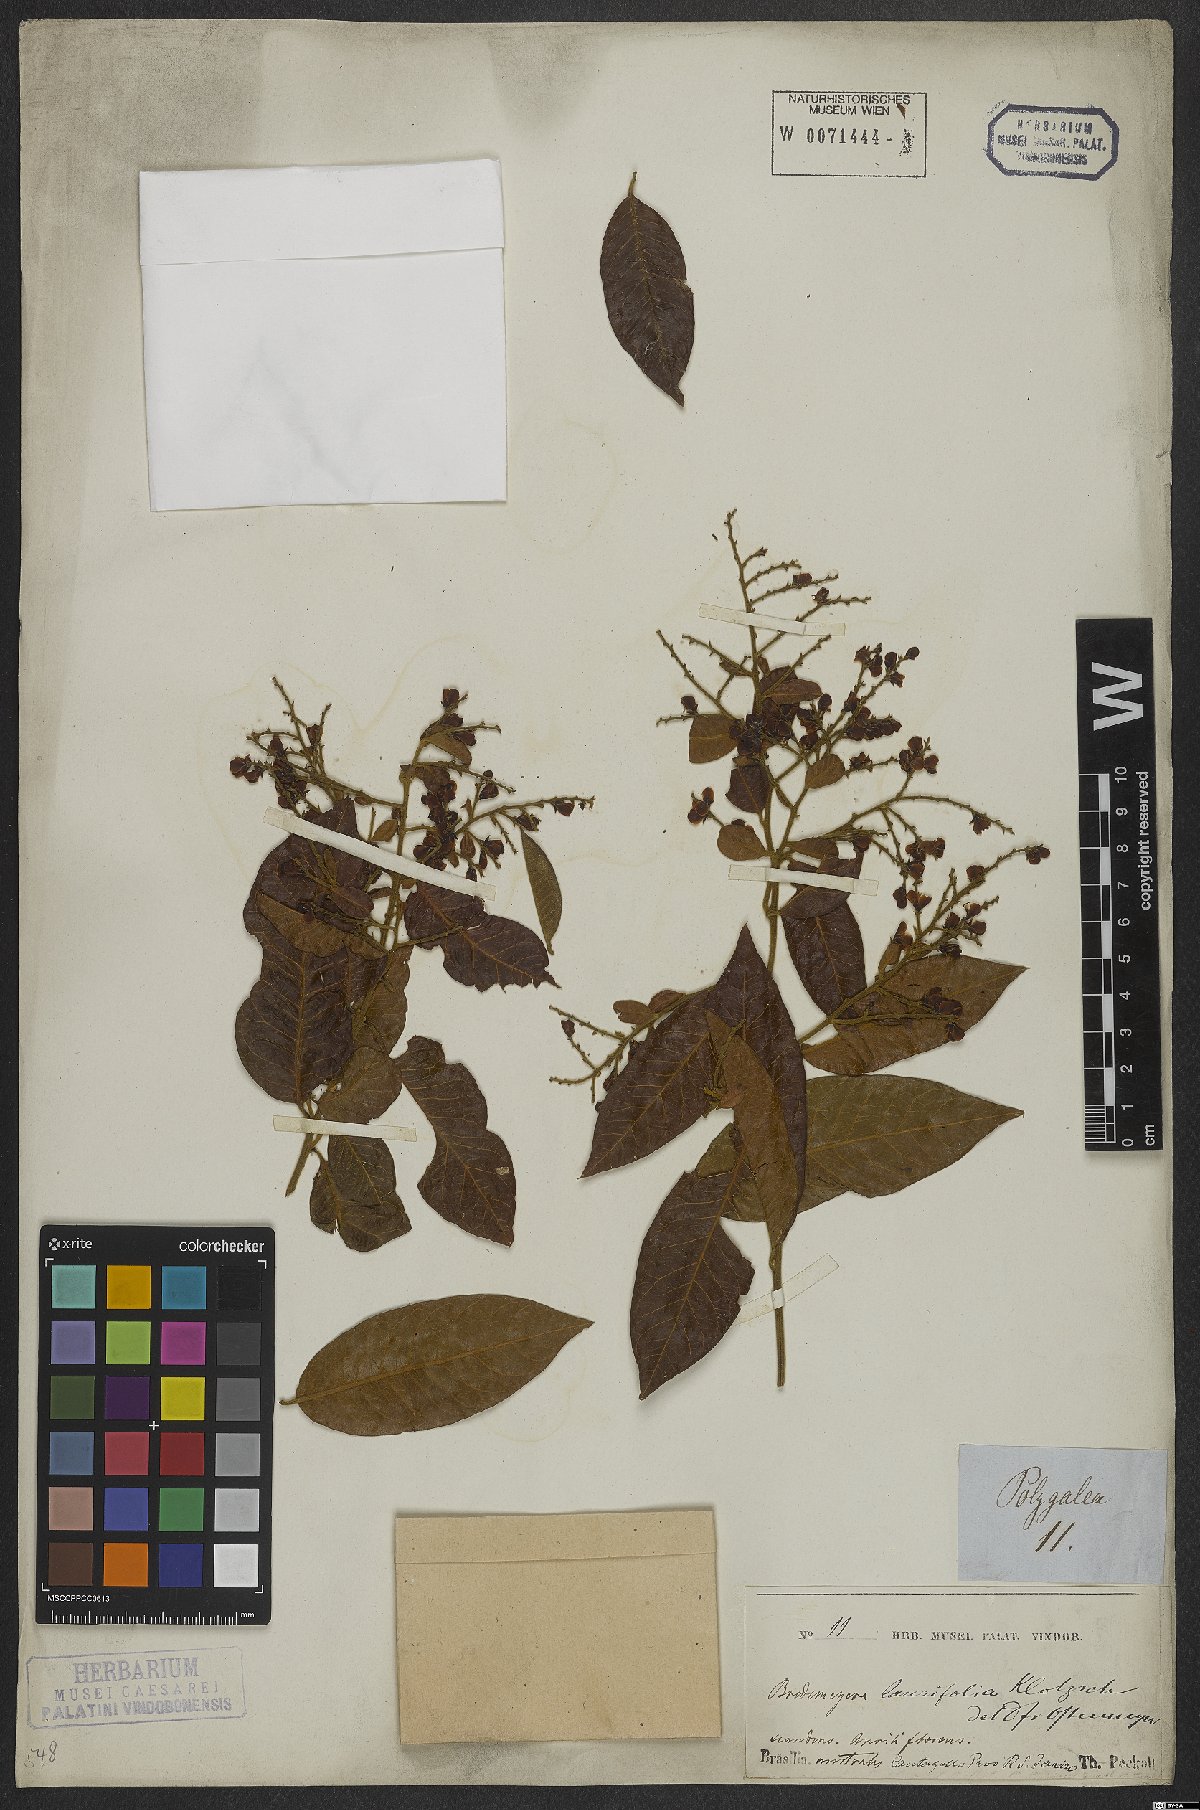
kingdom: Plantae
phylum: Tracheophyta
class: Magnoliopsida
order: Fabales
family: Polygalaceae
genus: Bredemeyera
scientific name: Bredemeyera laurifolia
